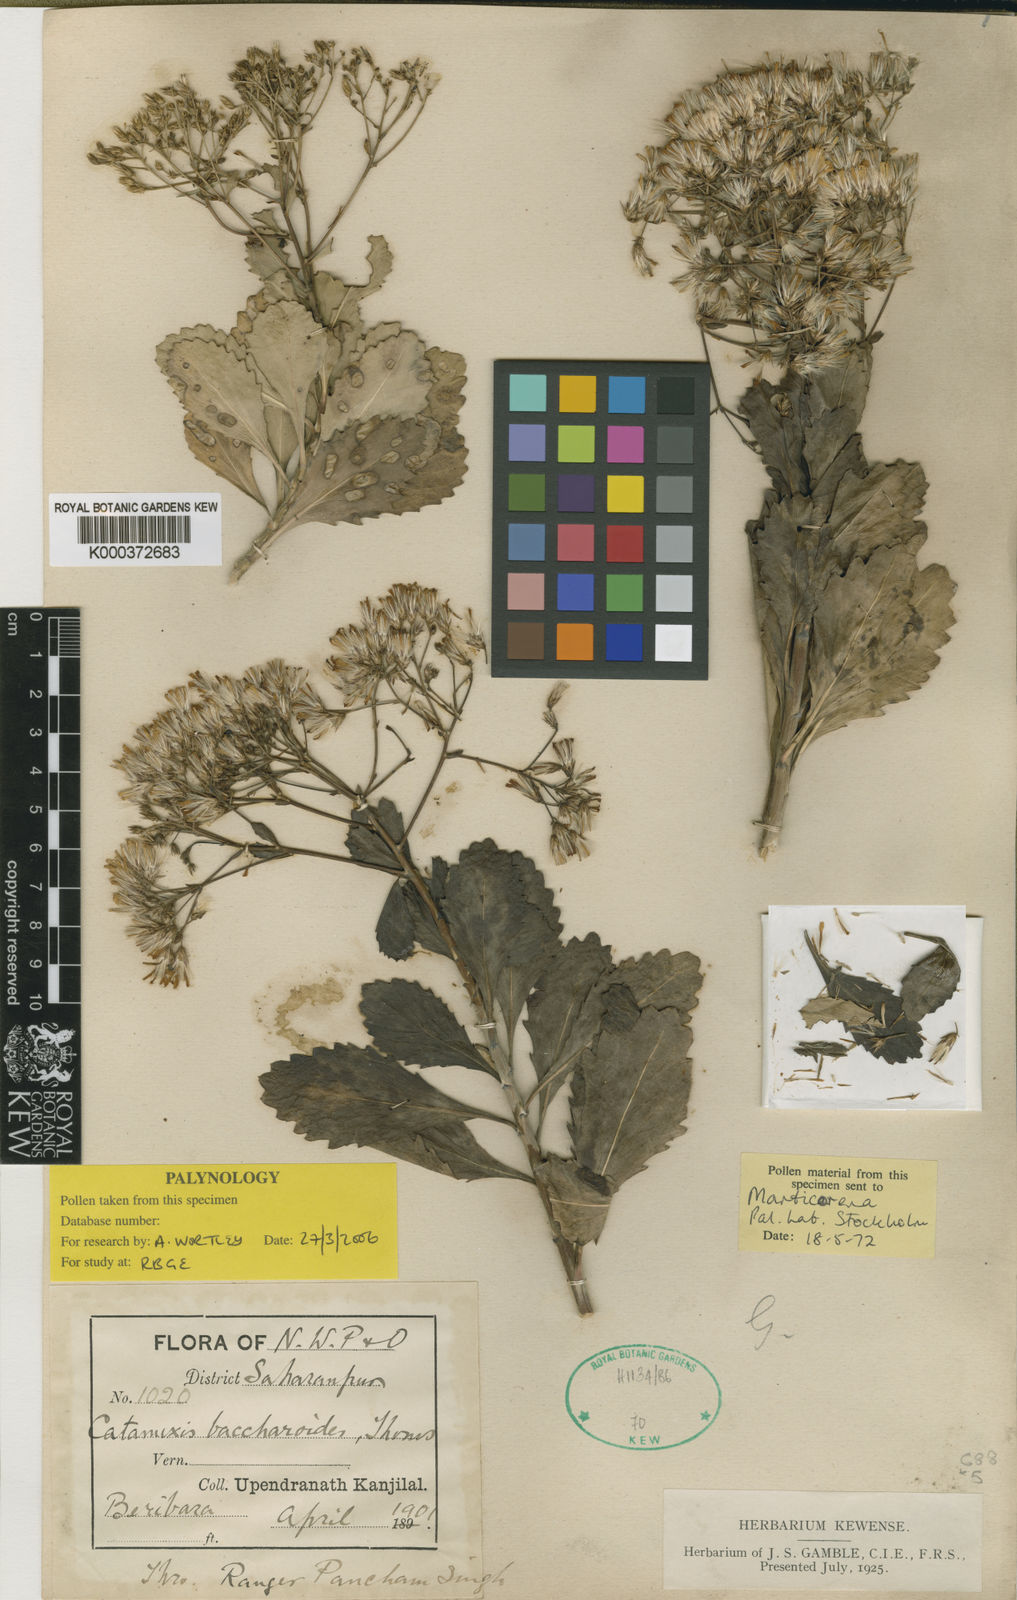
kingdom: Plantae
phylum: Tracheophyta
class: Magnoliopsida
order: Asterales
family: Asteraceae
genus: Catamixis
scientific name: Catamixis baccharoides
